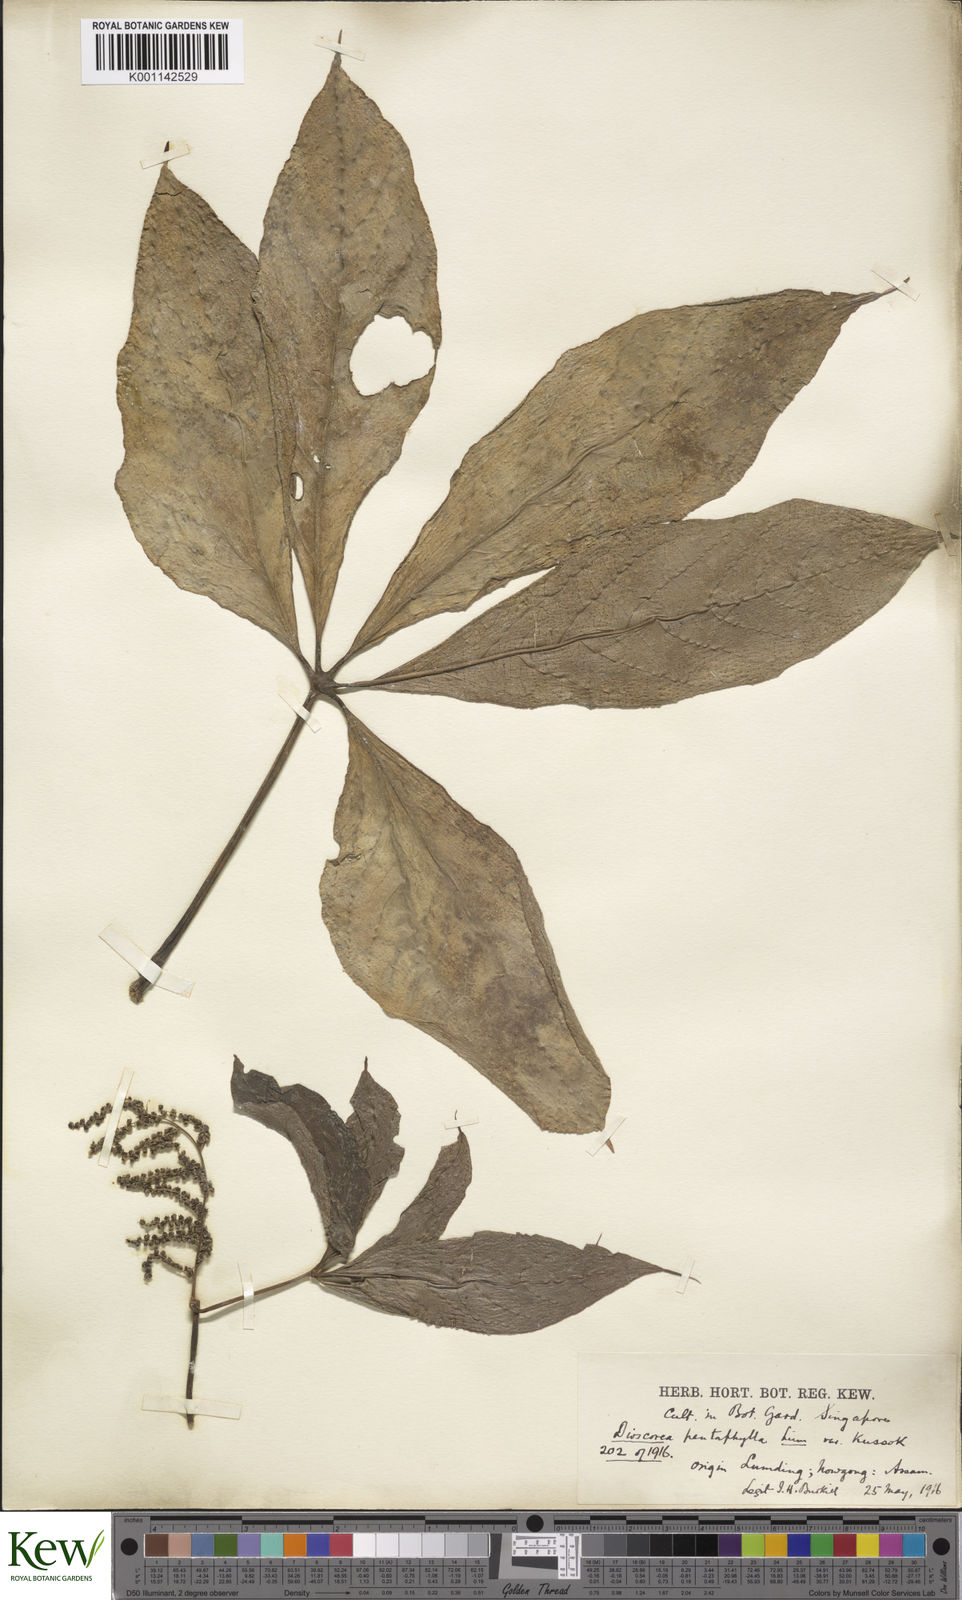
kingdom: Plantae
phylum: Tracheophyta
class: Liliopsida
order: Dioscoreales
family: Dioscoreaceae
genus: Dioscorea
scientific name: Dioscorea pentaphylla
